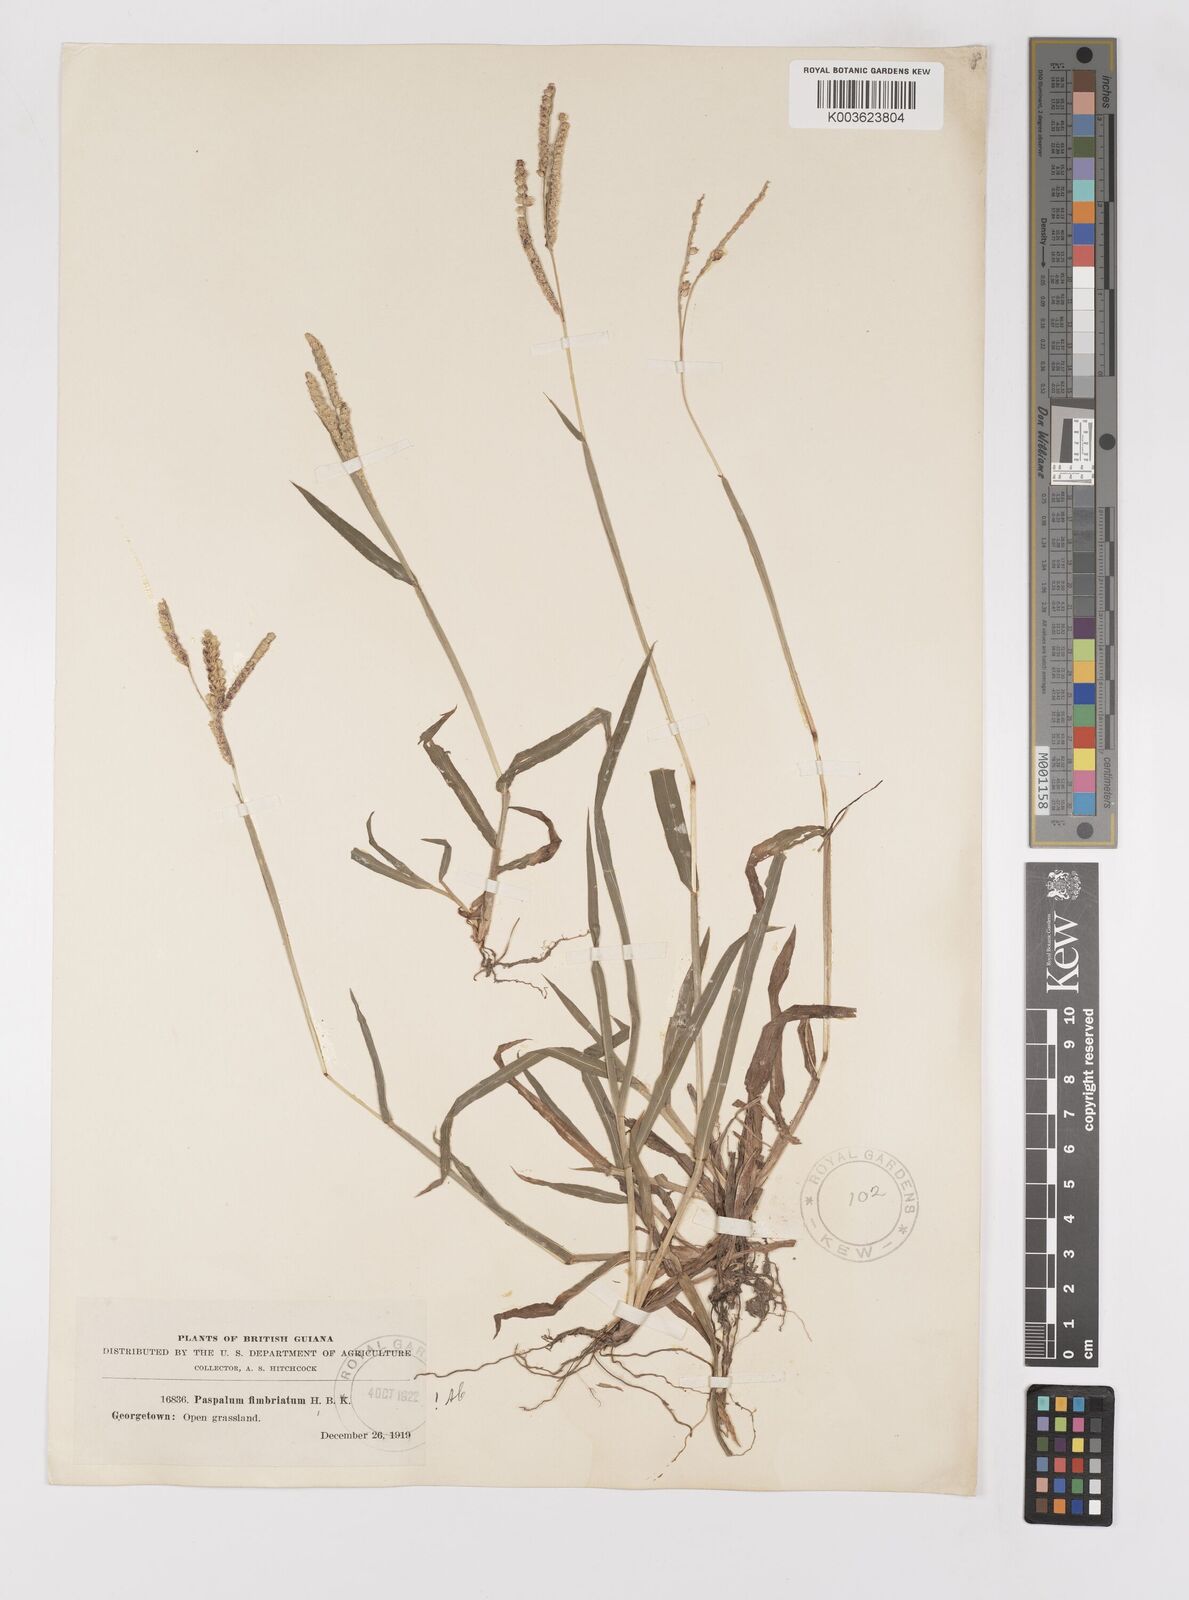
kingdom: Plantae
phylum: Tracheophyta
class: Liliopsida
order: Poales
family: Poaceae
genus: Paspalum
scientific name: Paspalum fimbriatum
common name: Panama crowngrass
